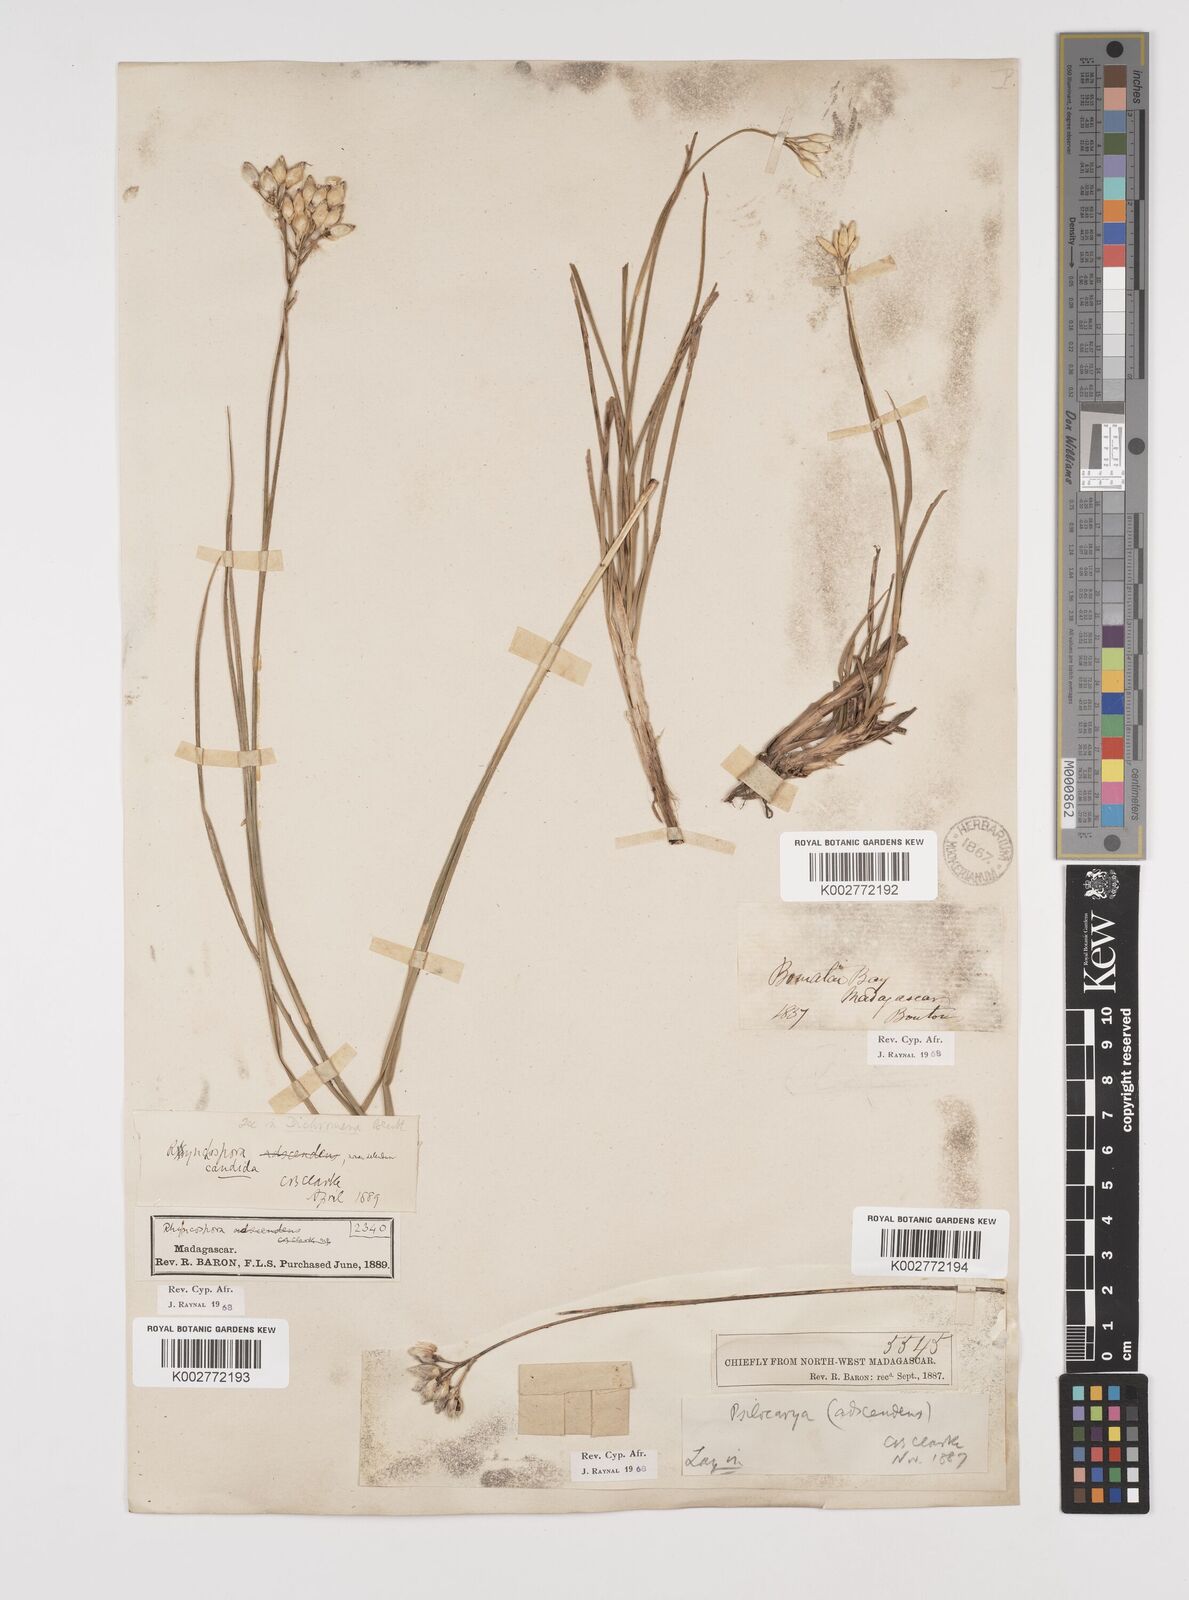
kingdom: Plantae
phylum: Tracheophyta
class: Liliopsida
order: Poales
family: Cyperaceae
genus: Rhynchospora
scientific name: Rhynchospora candida
